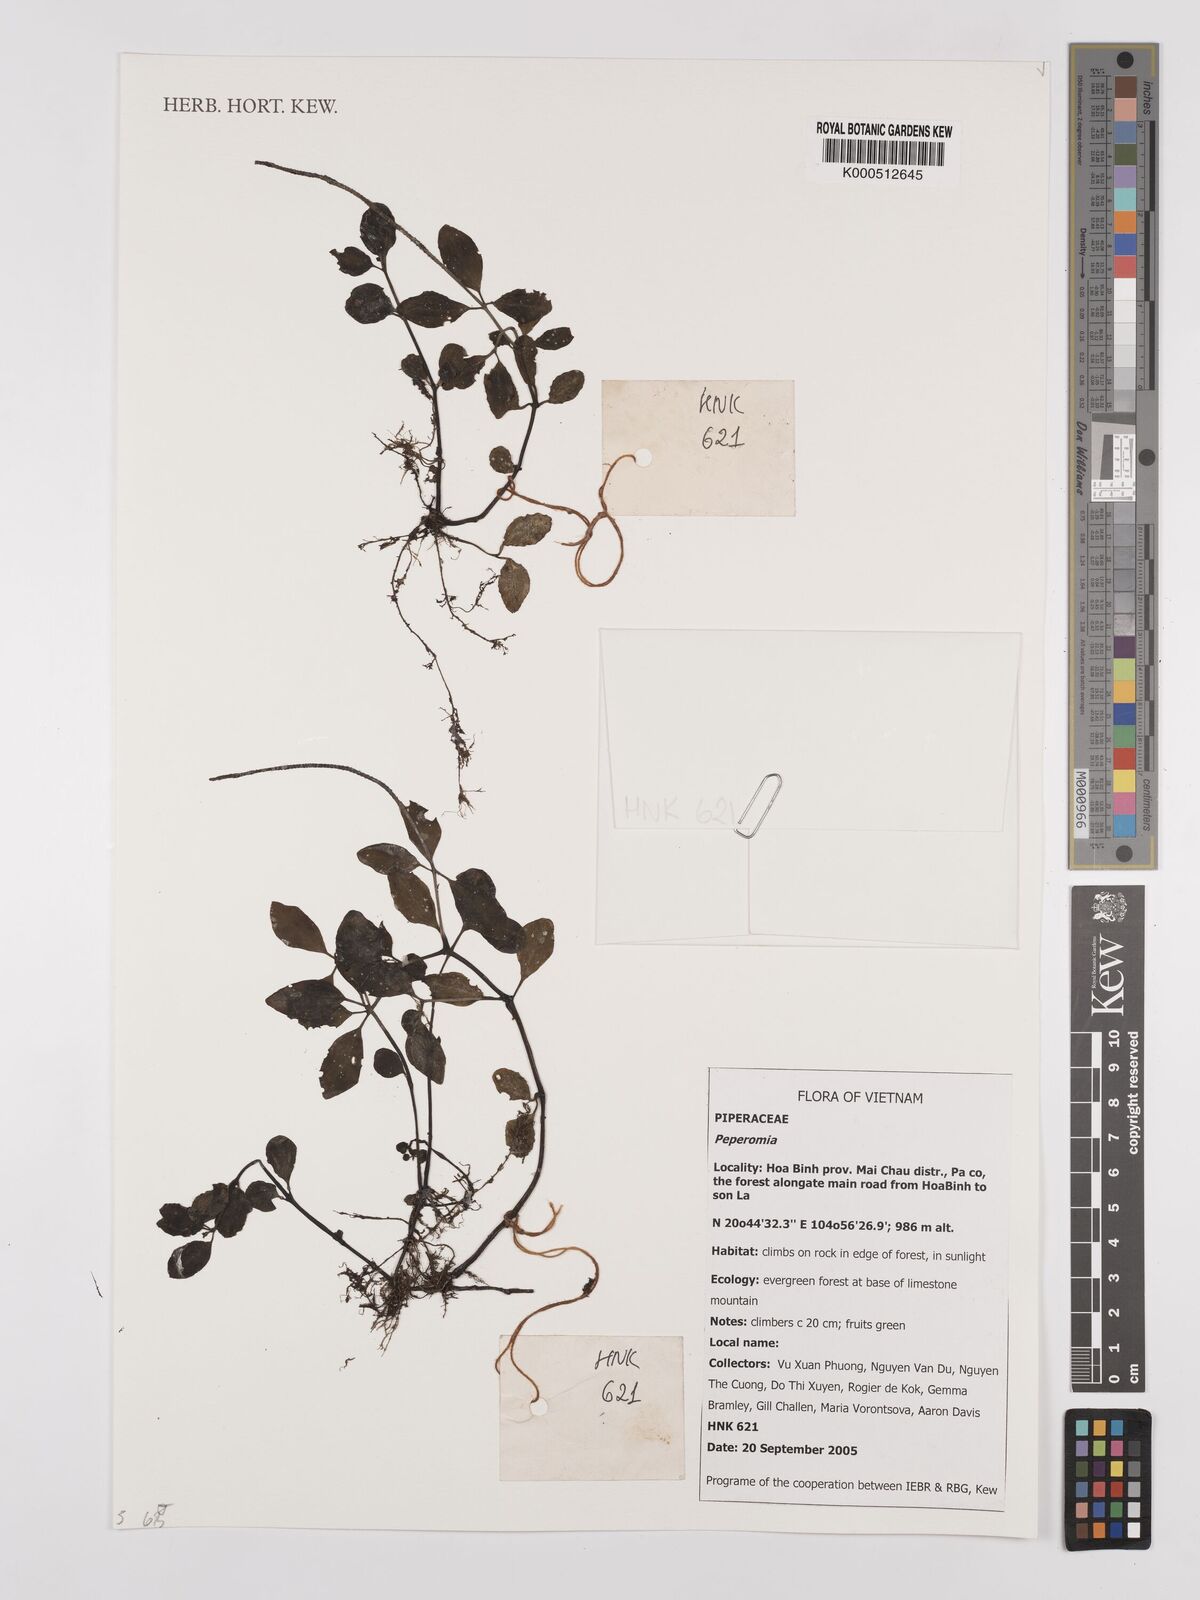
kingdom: Plantae
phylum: Tracheophyta
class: Magnoliopsida
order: Piperales
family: Piperaceae
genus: Peperomia
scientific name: Peperomia
